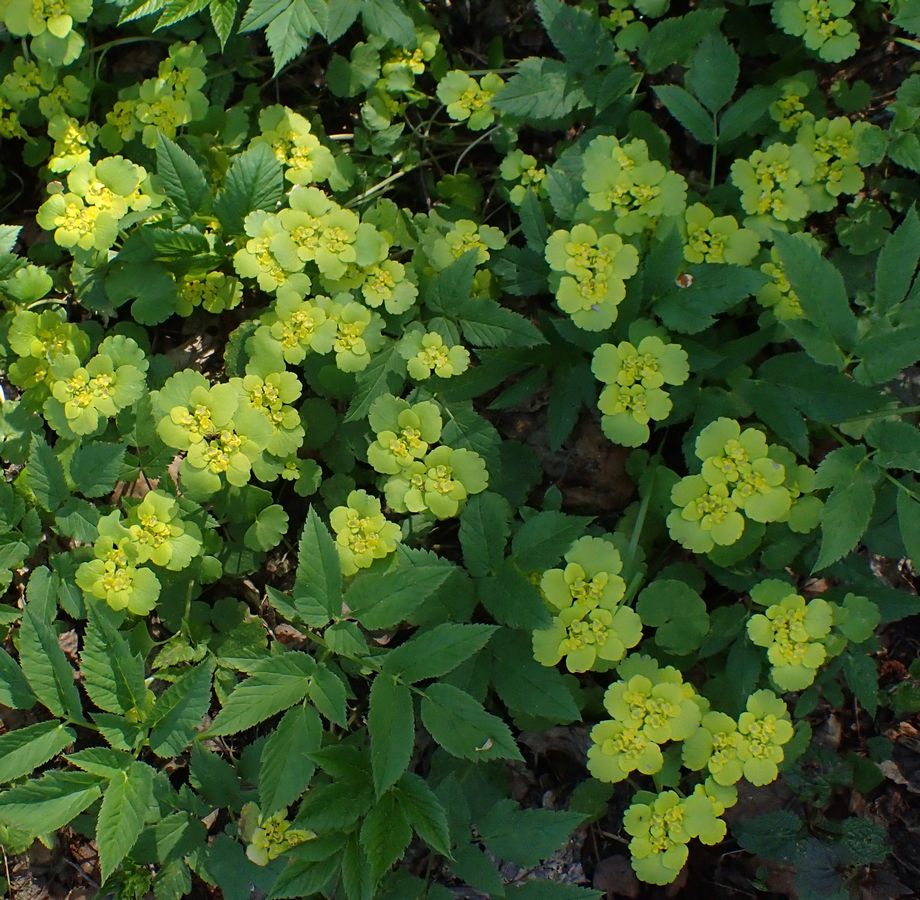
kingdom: Plantae
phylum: Tracheophyta
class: Magnoliopsida
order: Saxifragales
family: Saxifragaceae
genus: Chrysosplenium
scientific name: Chrysosplenium alternifolium
